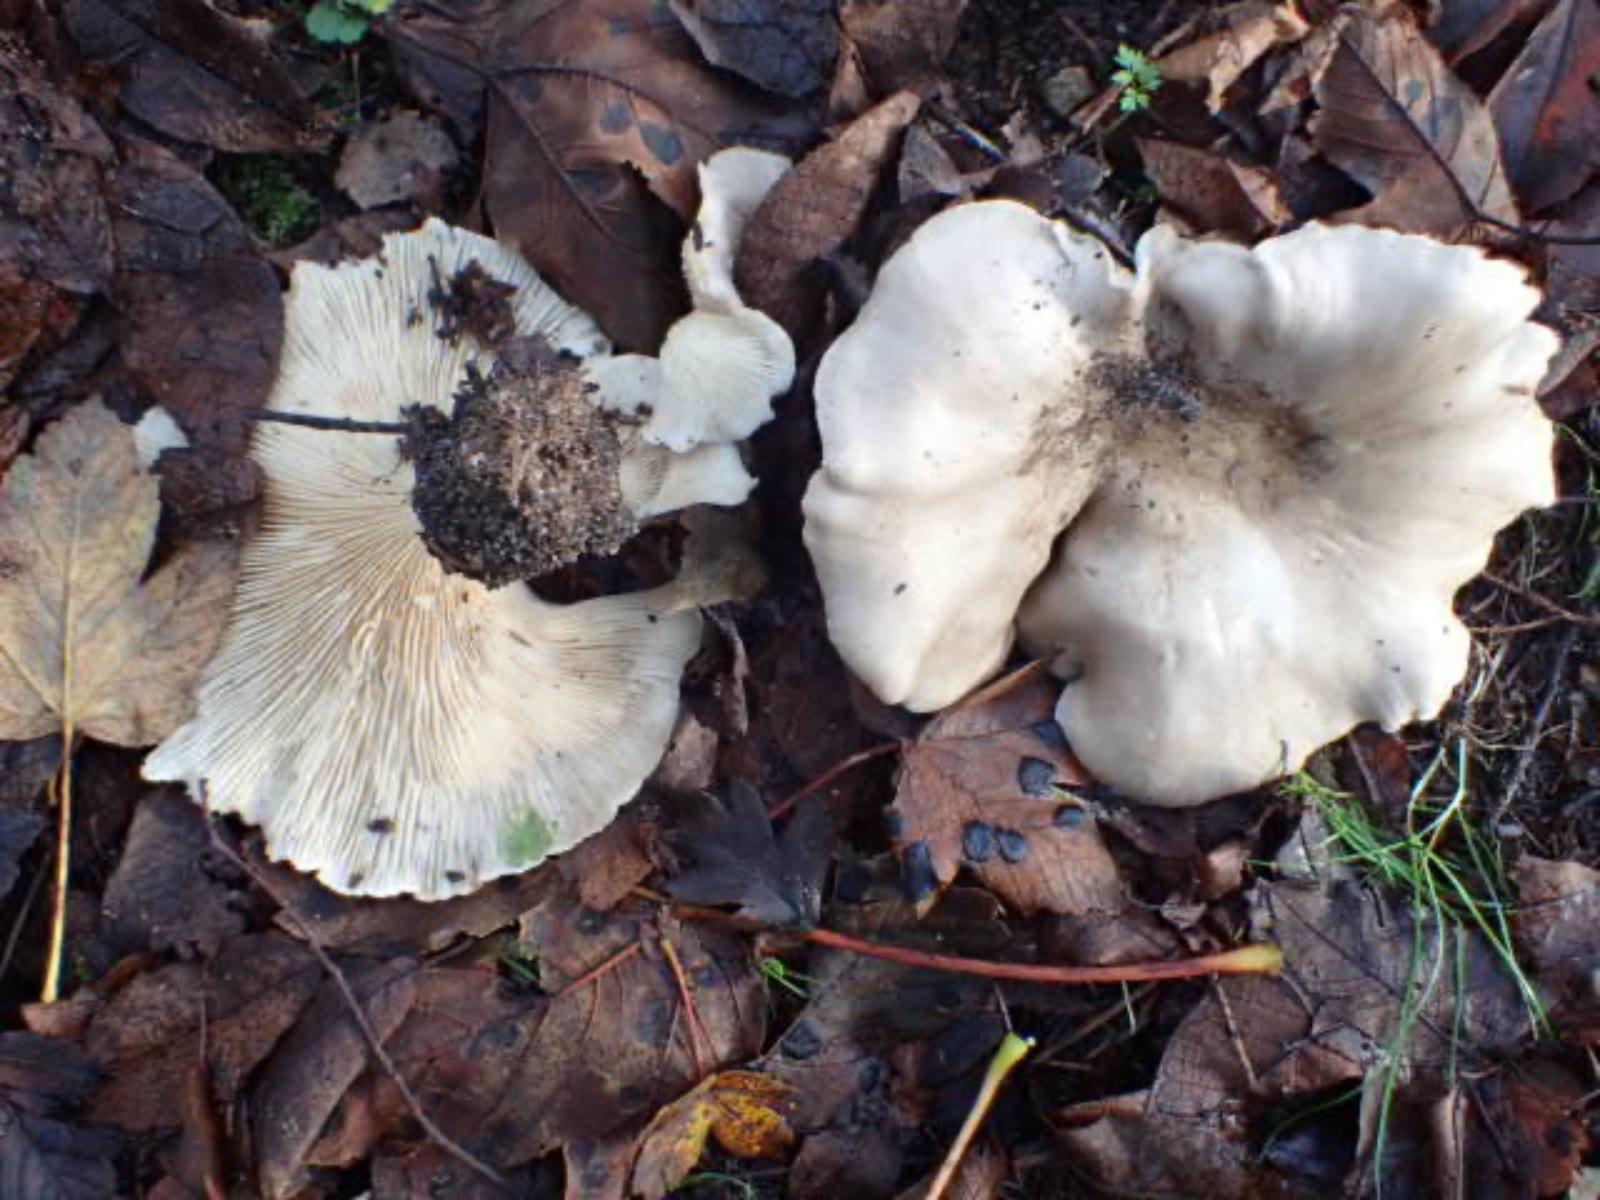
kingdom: Fungi
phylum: Basidiomycota
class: Agaricomycetes
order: Agaricales
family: Tricholomataceae
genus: Aspropaxillus
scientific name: Aspropaxillus giganteus
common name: kæmpe-tragtridderhat
